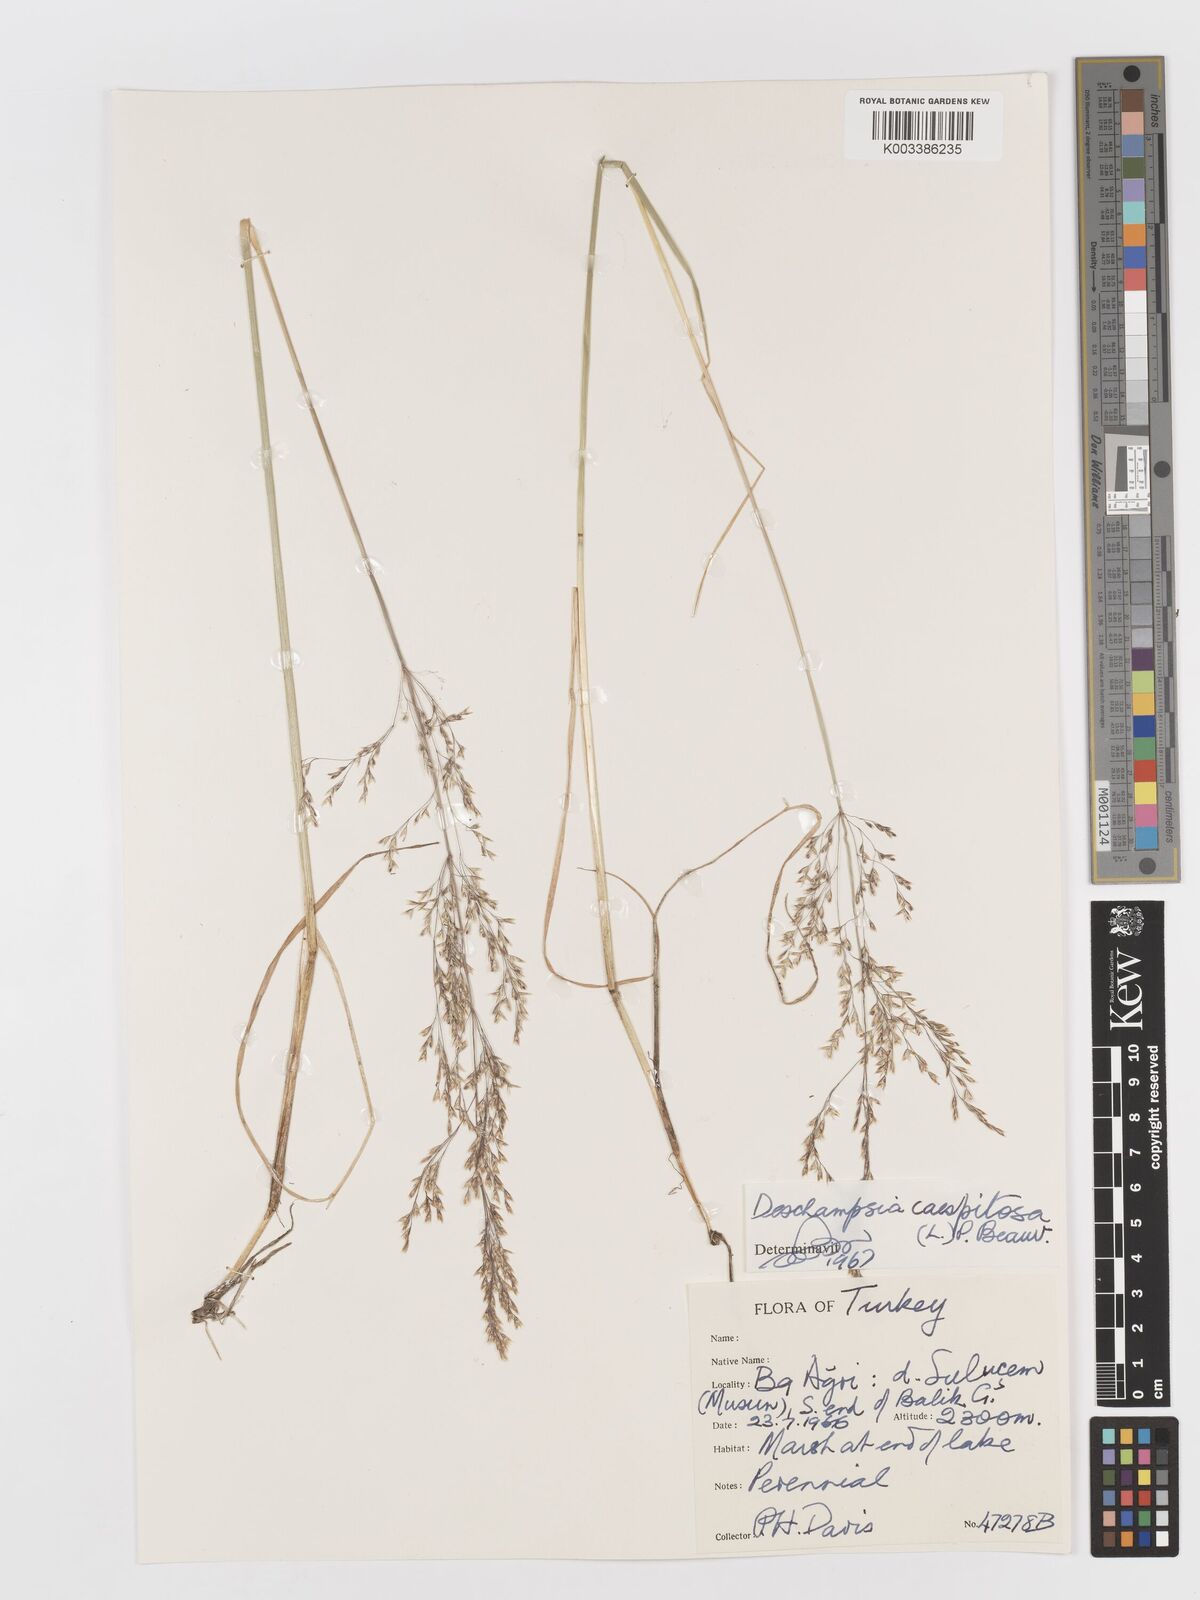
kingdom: Plantae
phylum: Tracheophyta
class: Liliopsida
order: Poales
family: Poaceae
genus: Deschampsia
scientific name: Deschampsia cespitosa
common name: Tufted hair-grass
